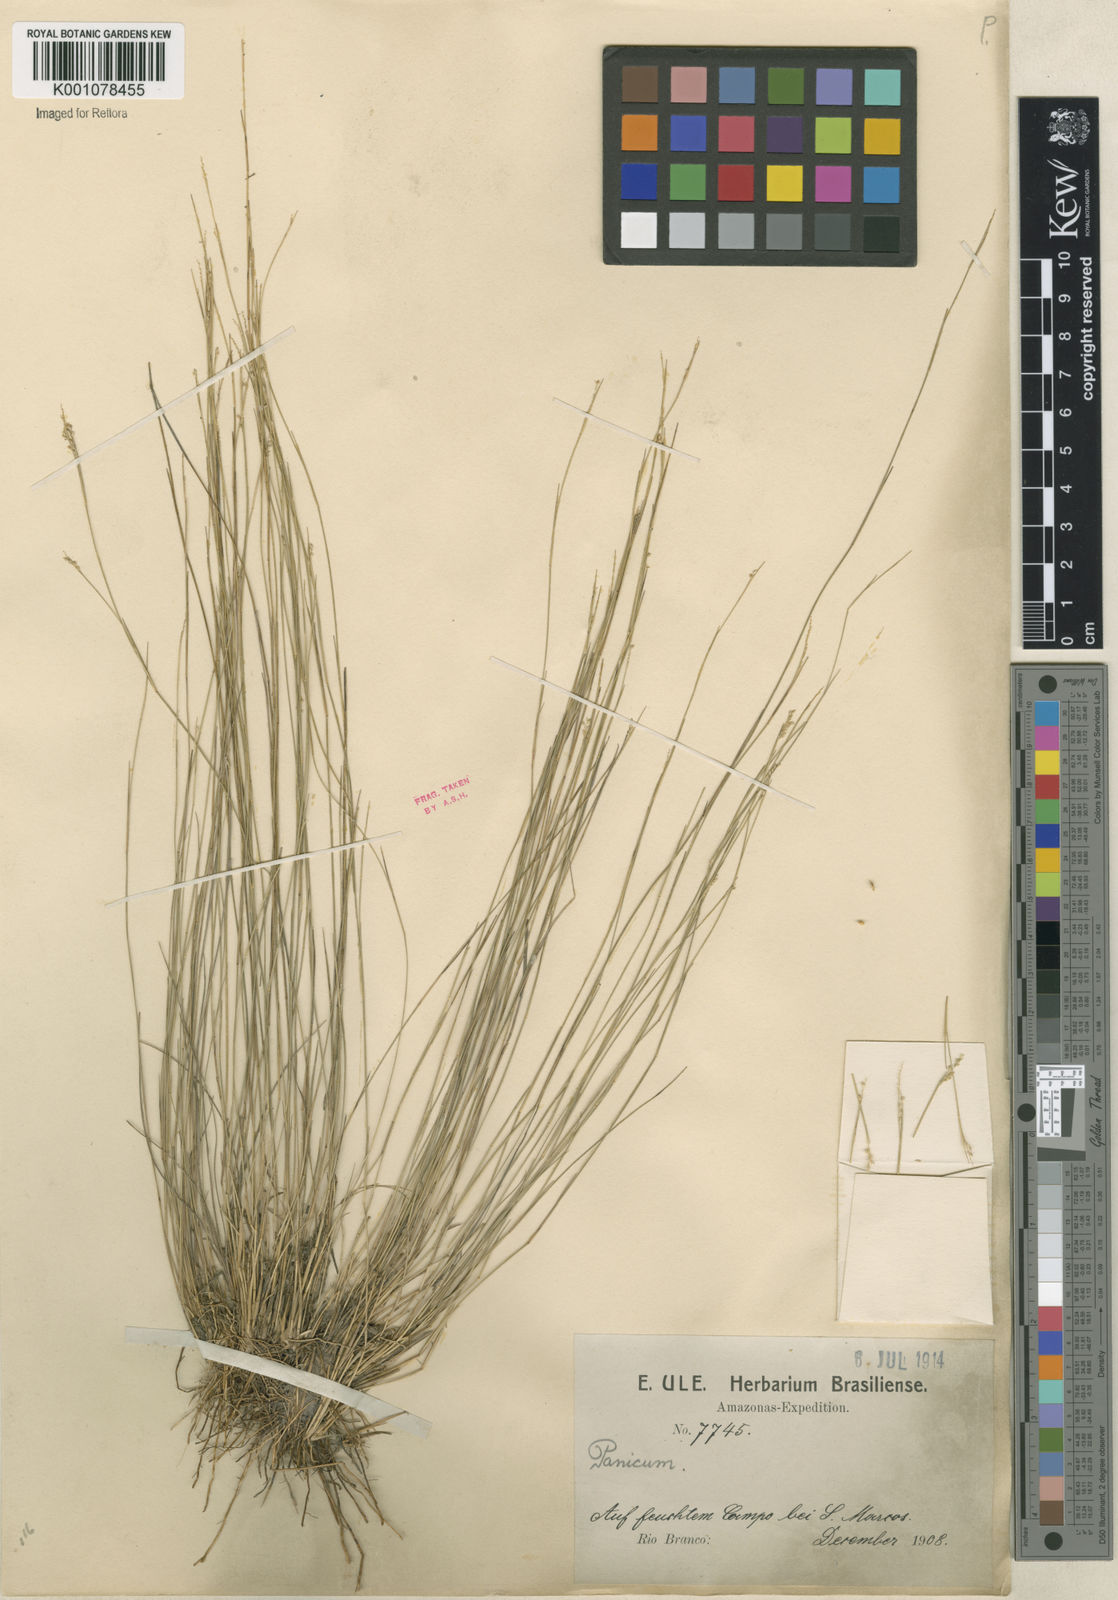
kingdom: Plantae
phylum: Tracheophyta
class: Liliopsida
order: Poales
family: Poaceae
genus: Coleataenia
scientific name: Coleataenia stenodes
